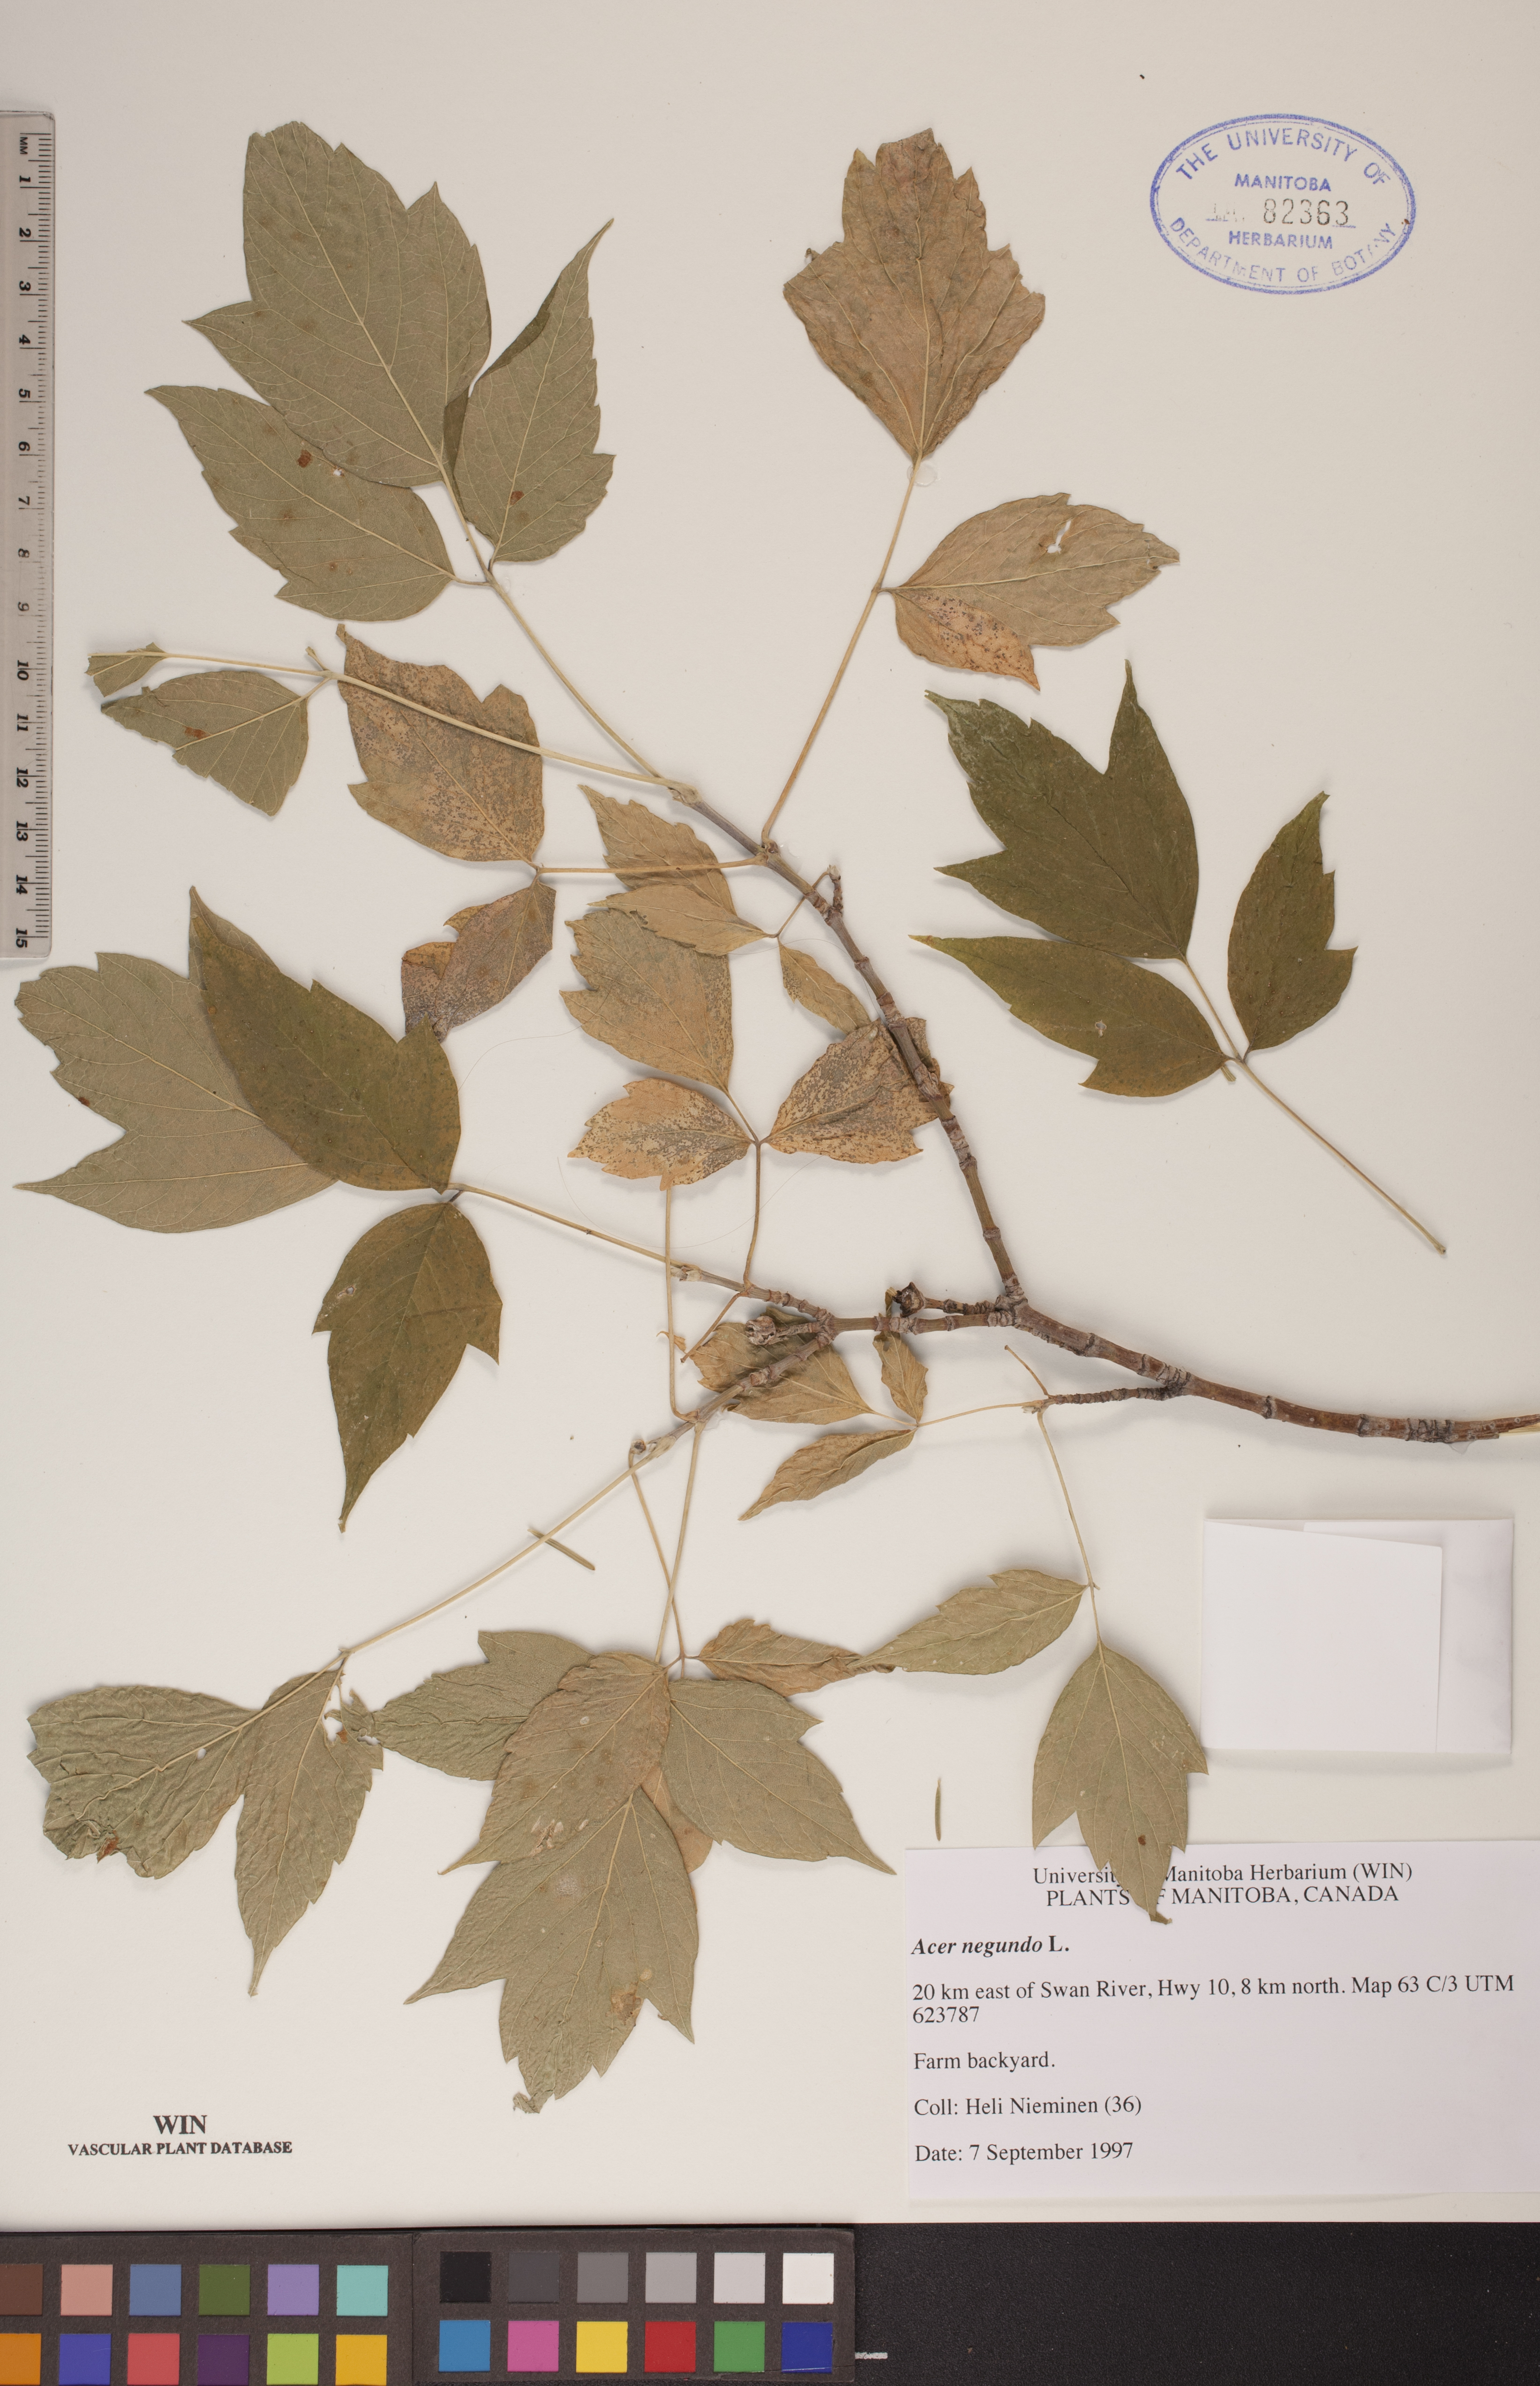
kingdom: Plantae
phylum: Tracheophyta
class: Magnoliopsida
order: Sapindales
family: Sapindaceae
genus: Acer
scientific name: Acer negundo
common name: Ashleaf maple
